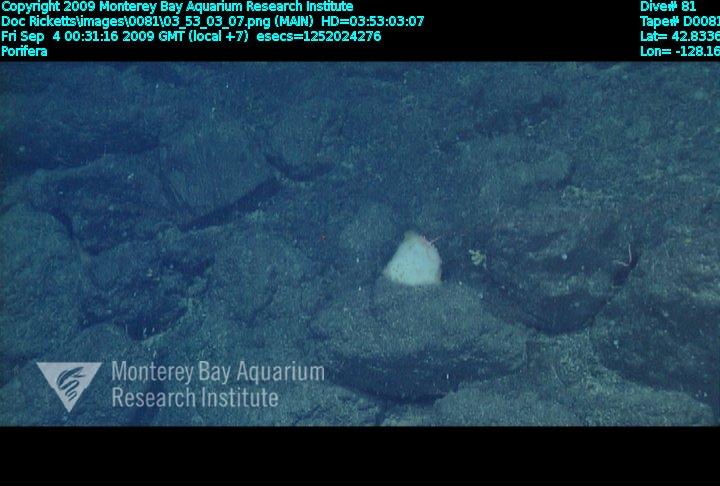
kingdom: Animalia
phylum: Porifera
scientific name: Porifera
